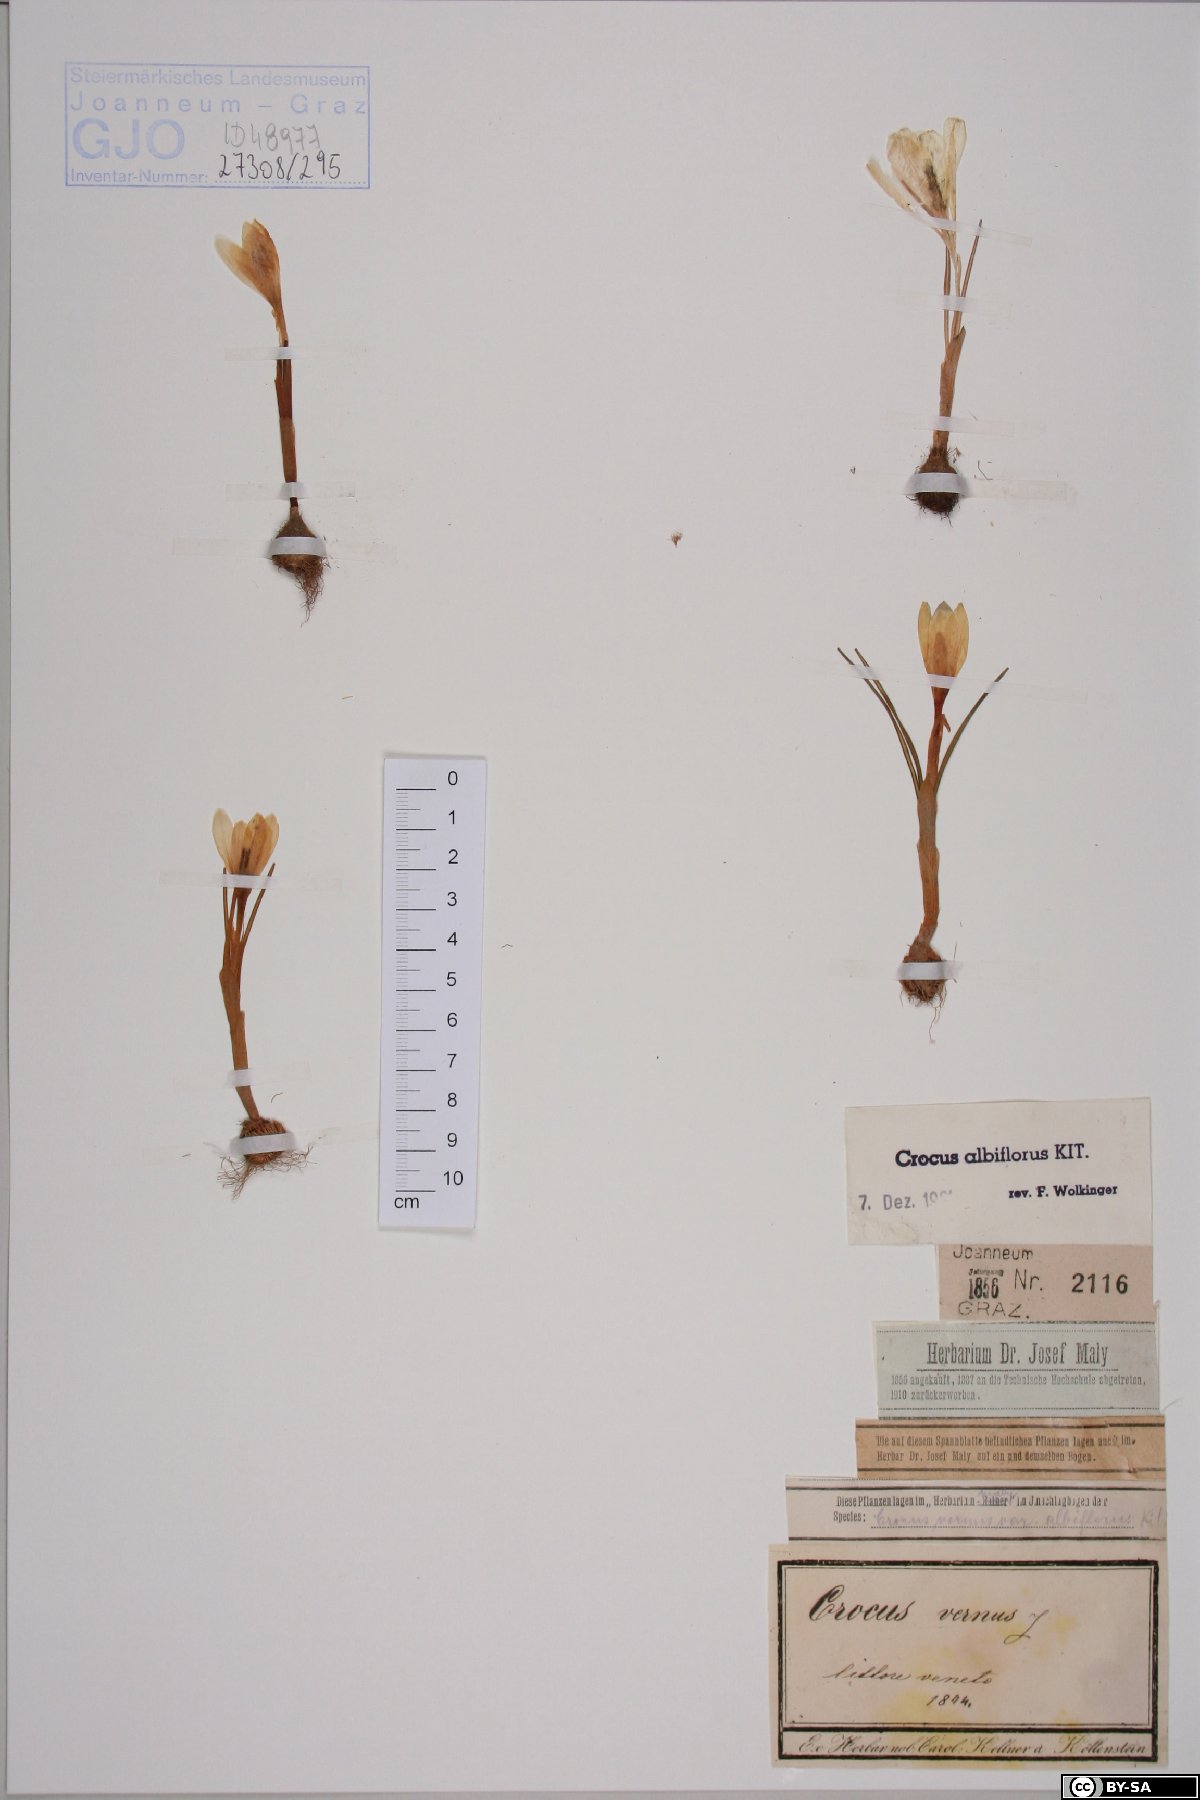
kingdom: Plantae
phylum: Tracheophyta
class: Liliopsida
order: Asparagales
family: Iridaceae
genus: Crocus
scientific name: Crocus vernus
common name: Spring crocus
